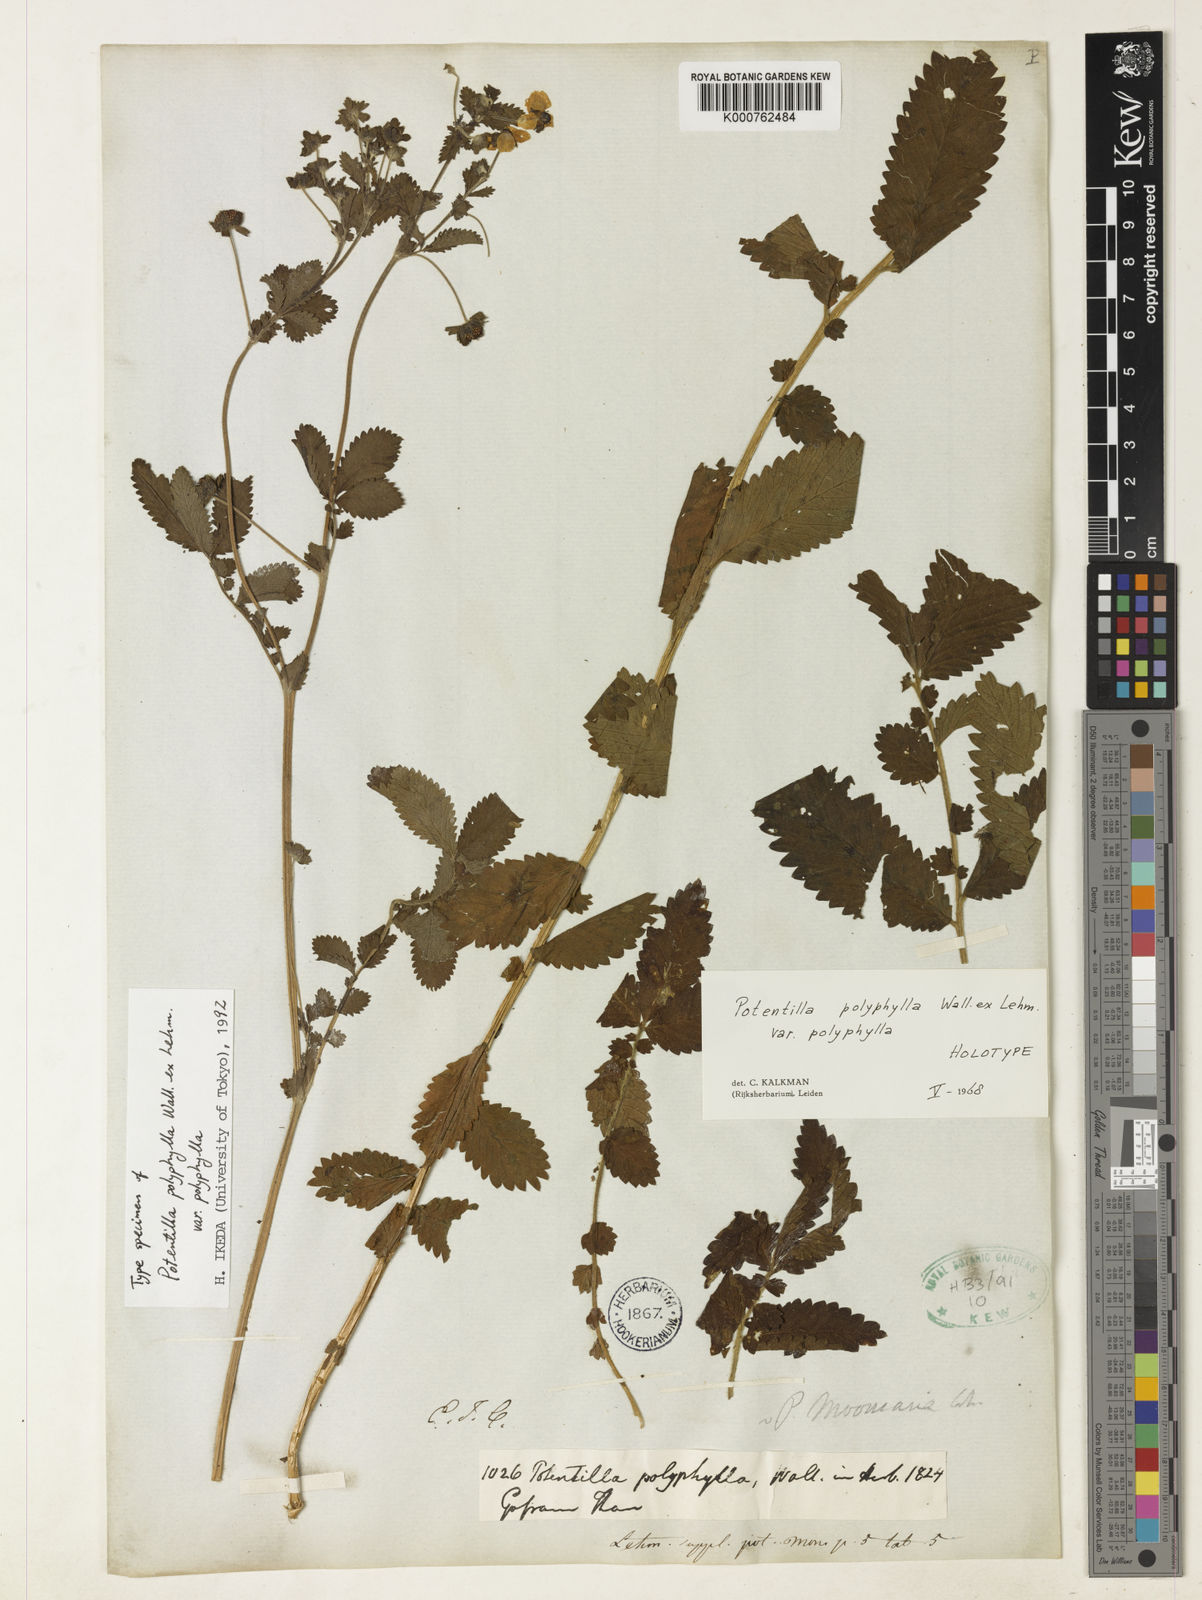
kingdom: Plantae
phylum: Tracheophyta
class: Magnoliopsida
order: Rosales
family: Rosaceae
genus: Argentina
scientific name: Argentina polyphylla
